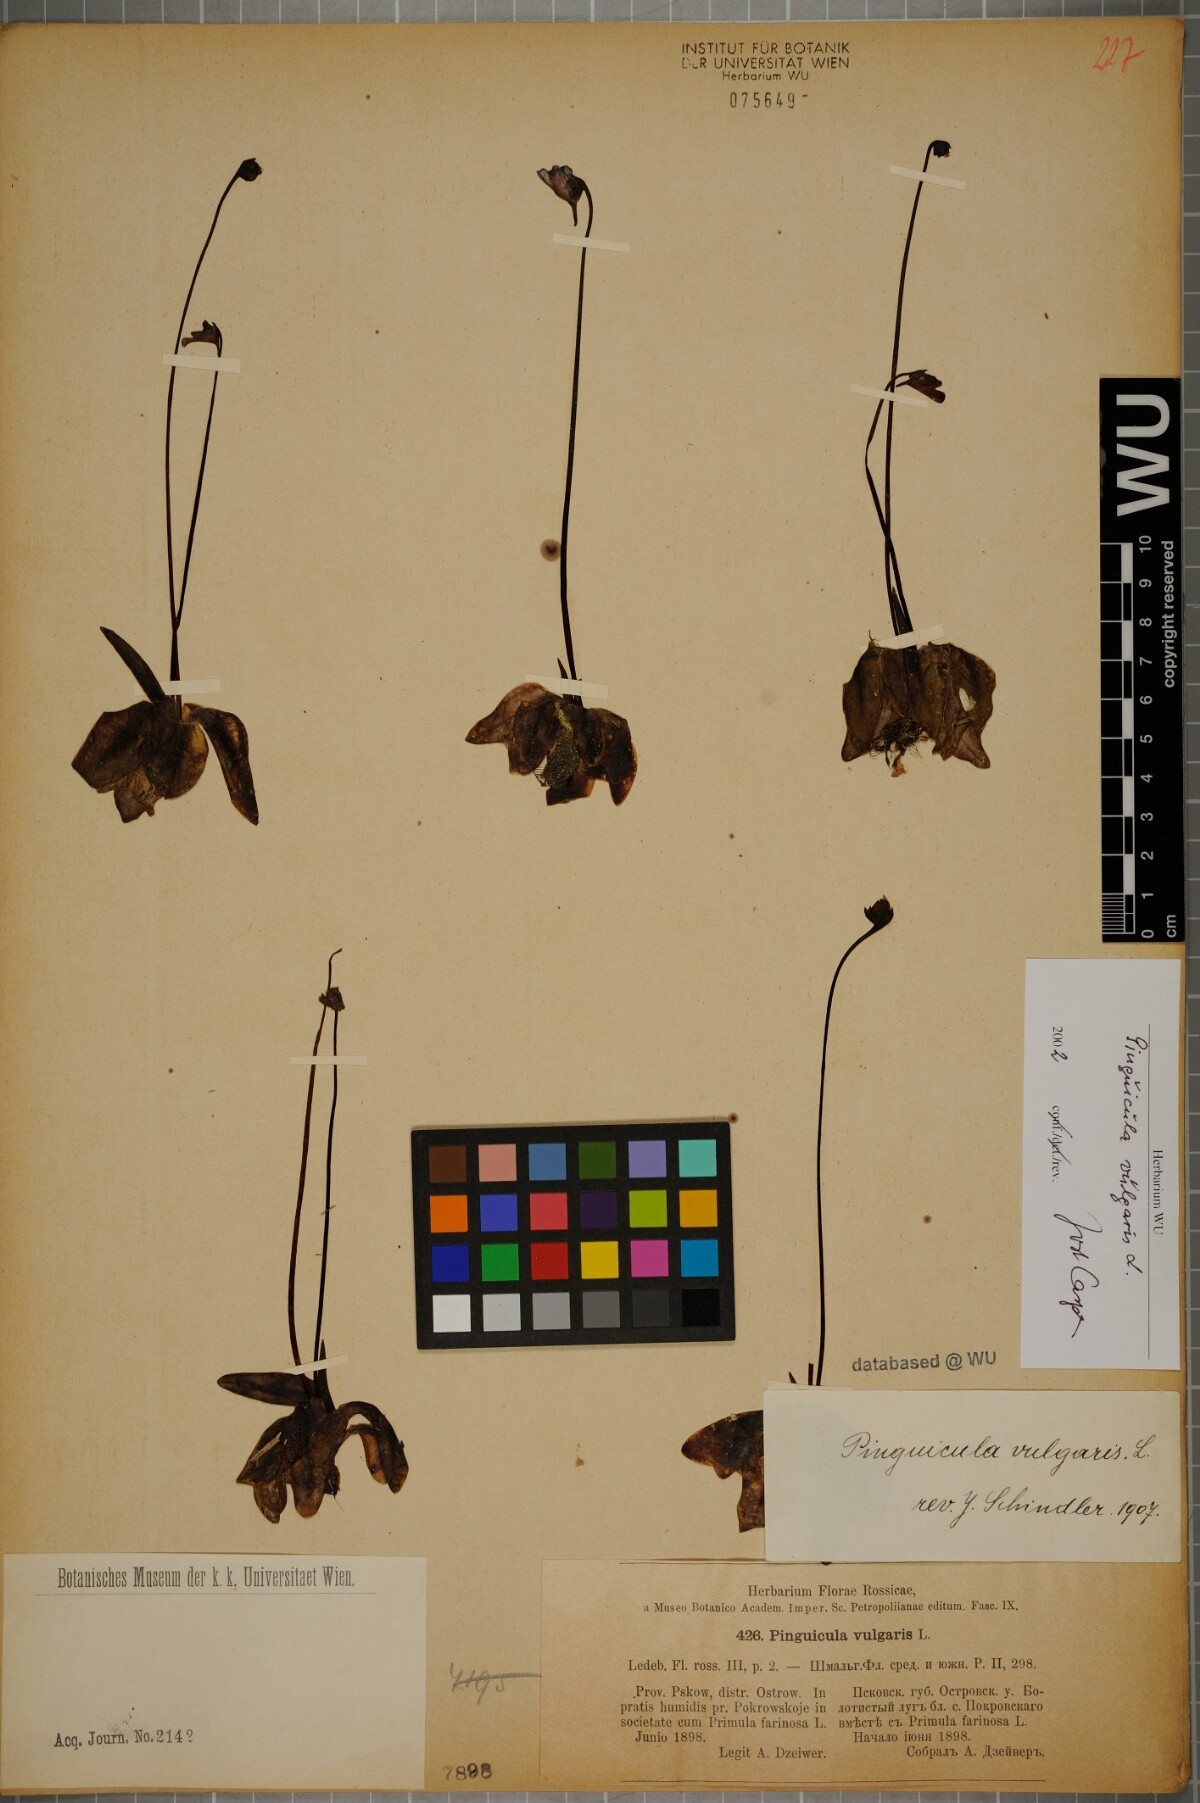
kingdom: Plantae
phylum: Tracheophyta
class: Magnoliopsida
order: Lamiales
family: Lentibulariaceae
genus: Pinguicula
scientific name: Pinguicula vulgaris
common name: Common butterwort
